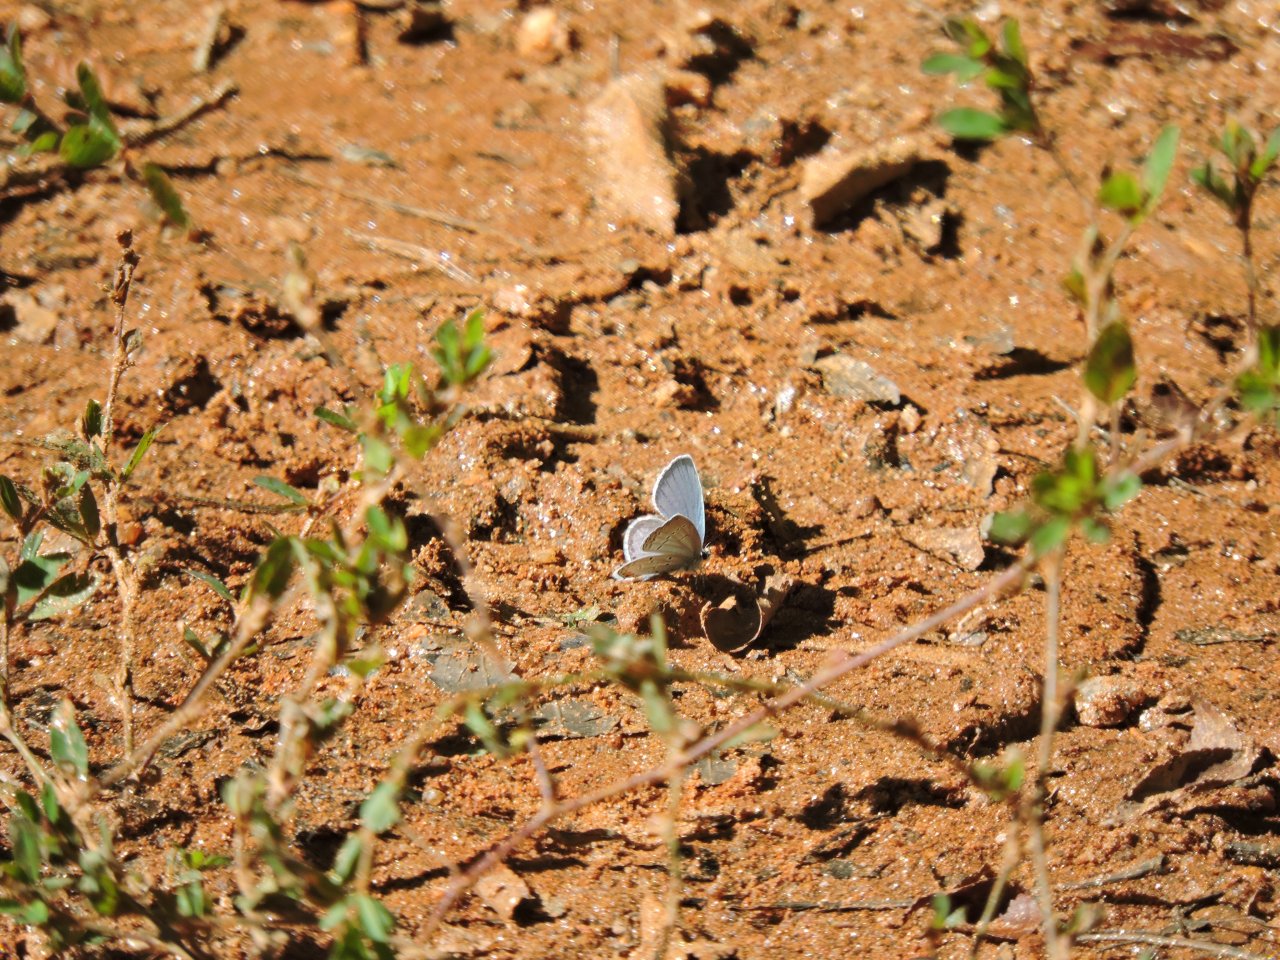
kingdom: Animalia
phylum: Arthropoda
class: Insecta
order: Lepidoptera
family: Lycaenidae
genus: Elkalyce
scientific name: Elkalyce comyntas
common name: Eastern Tailed-Blue
